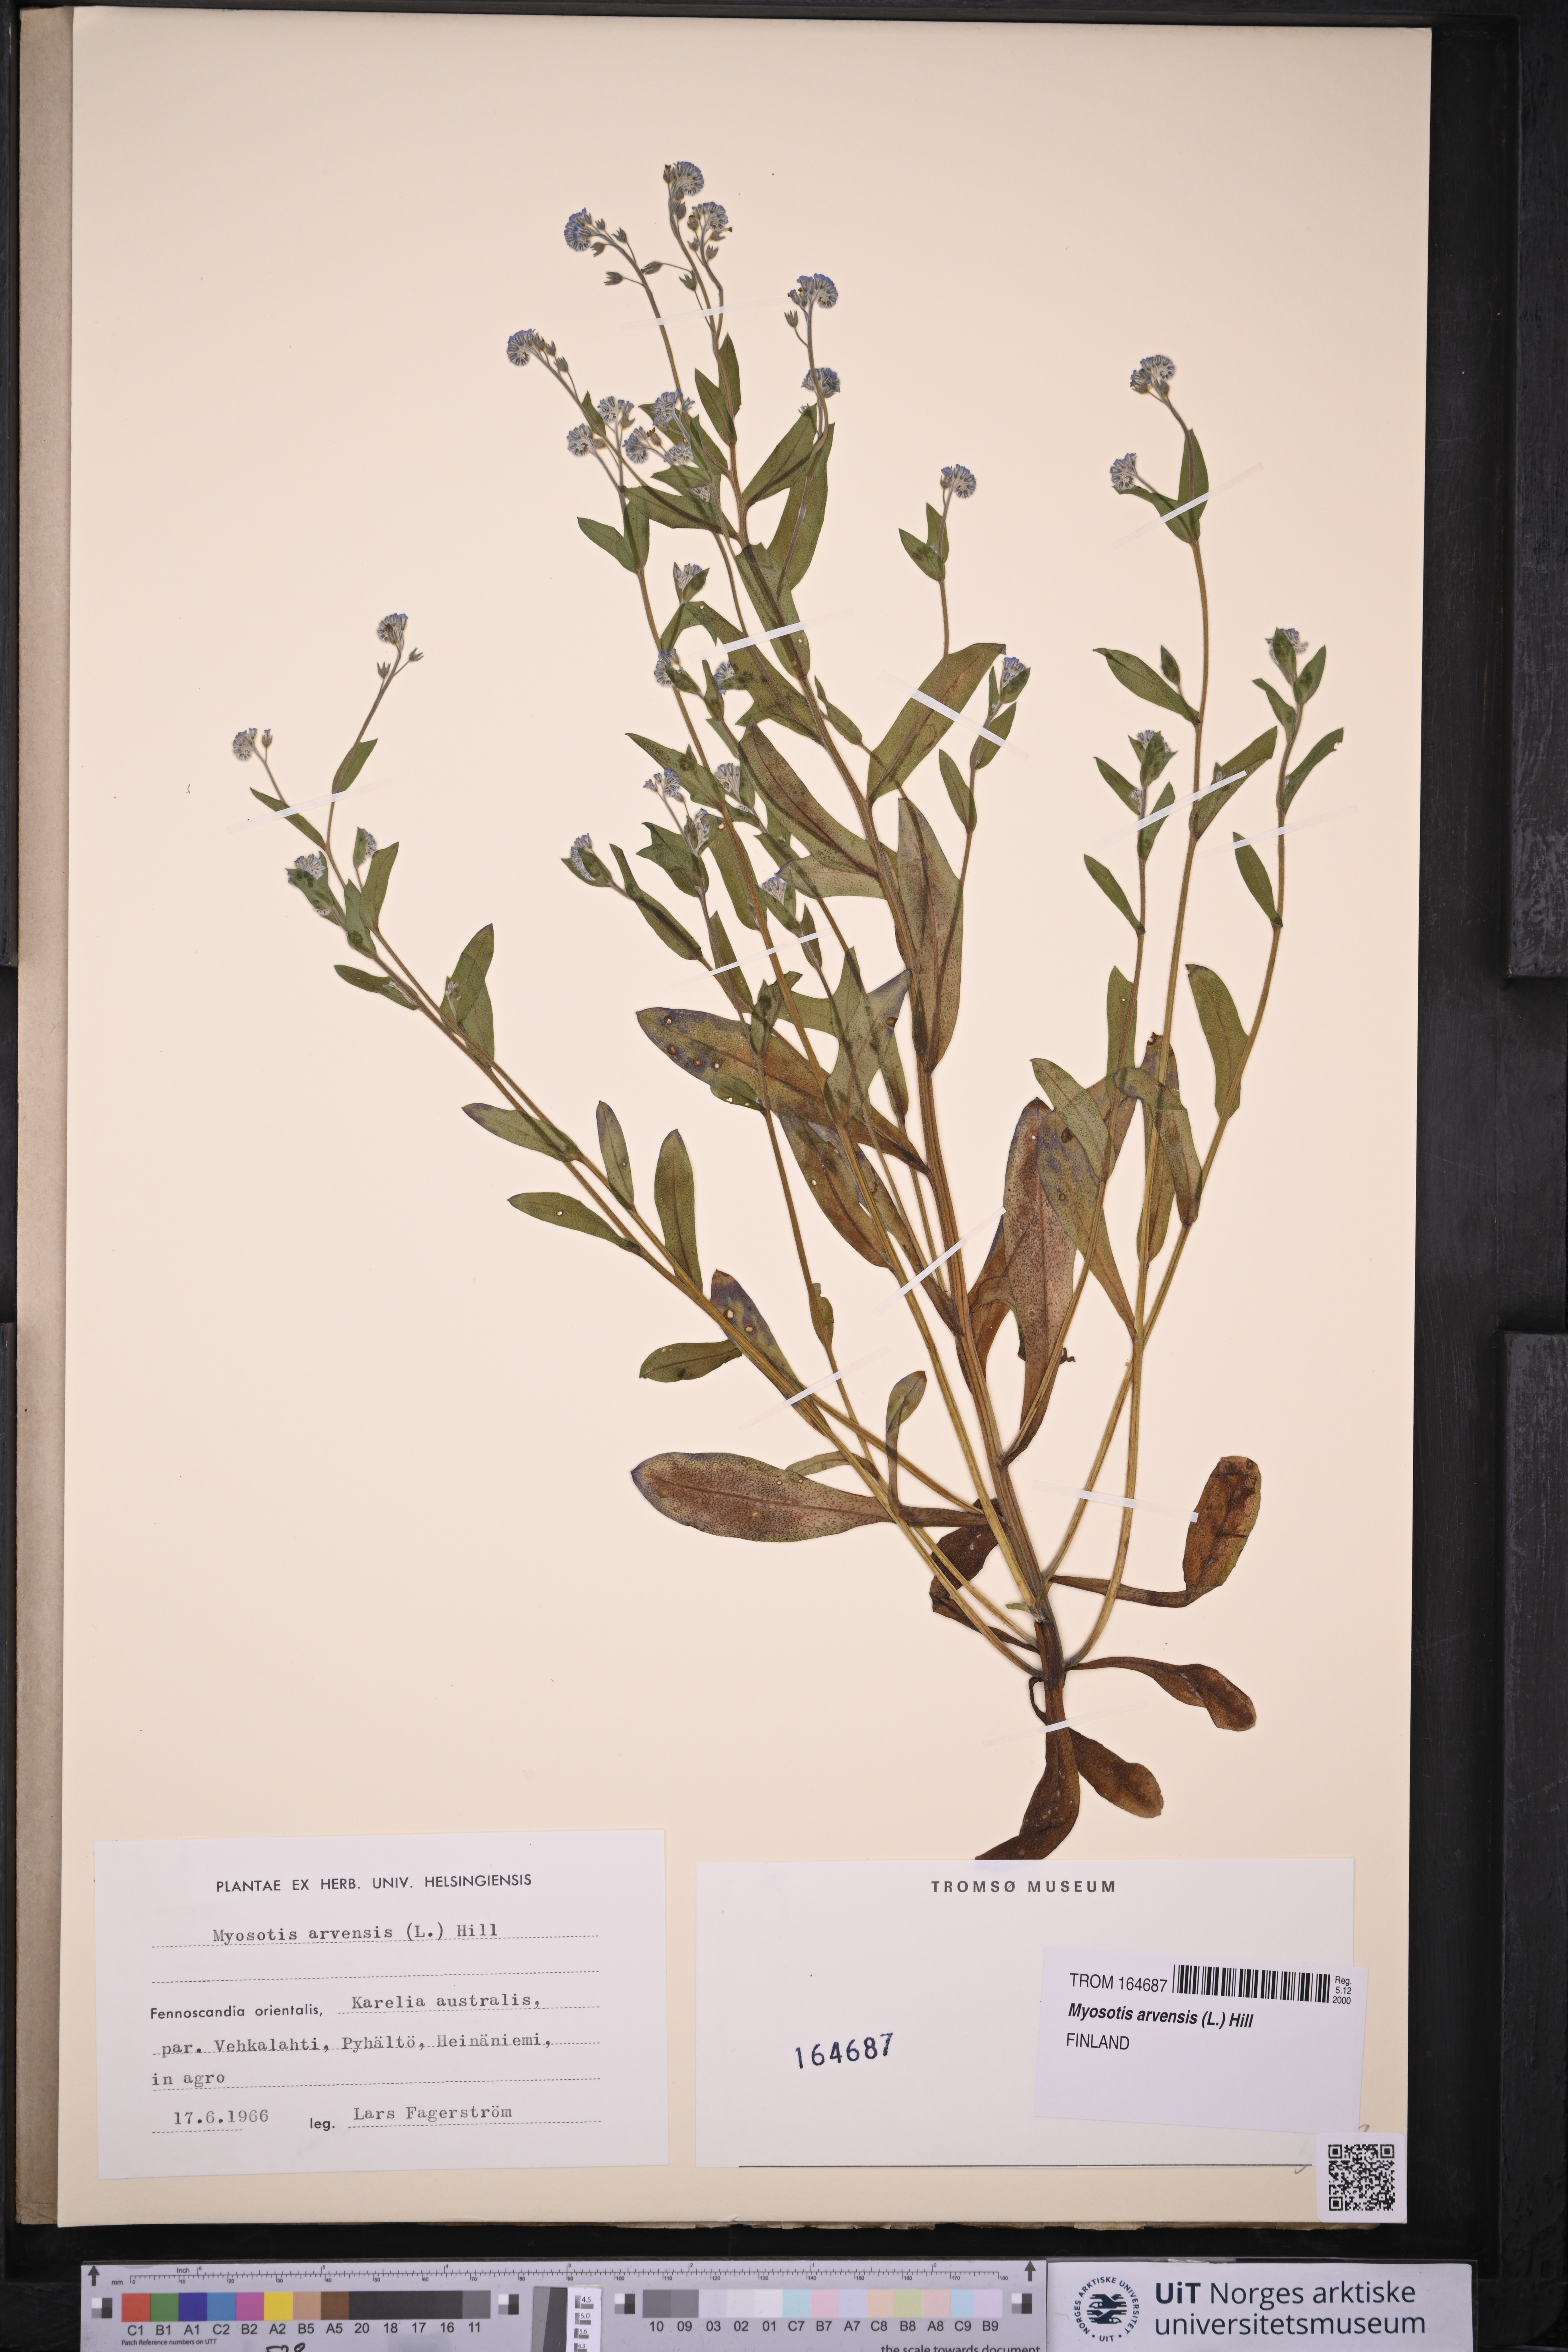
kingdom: Plantae
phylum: Tracheophyta
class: Magnoliopsida
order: Boraginales
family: Boraginaceae
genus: Myosotis
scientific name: Myosotis arvensis
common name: Field forget-me-not
